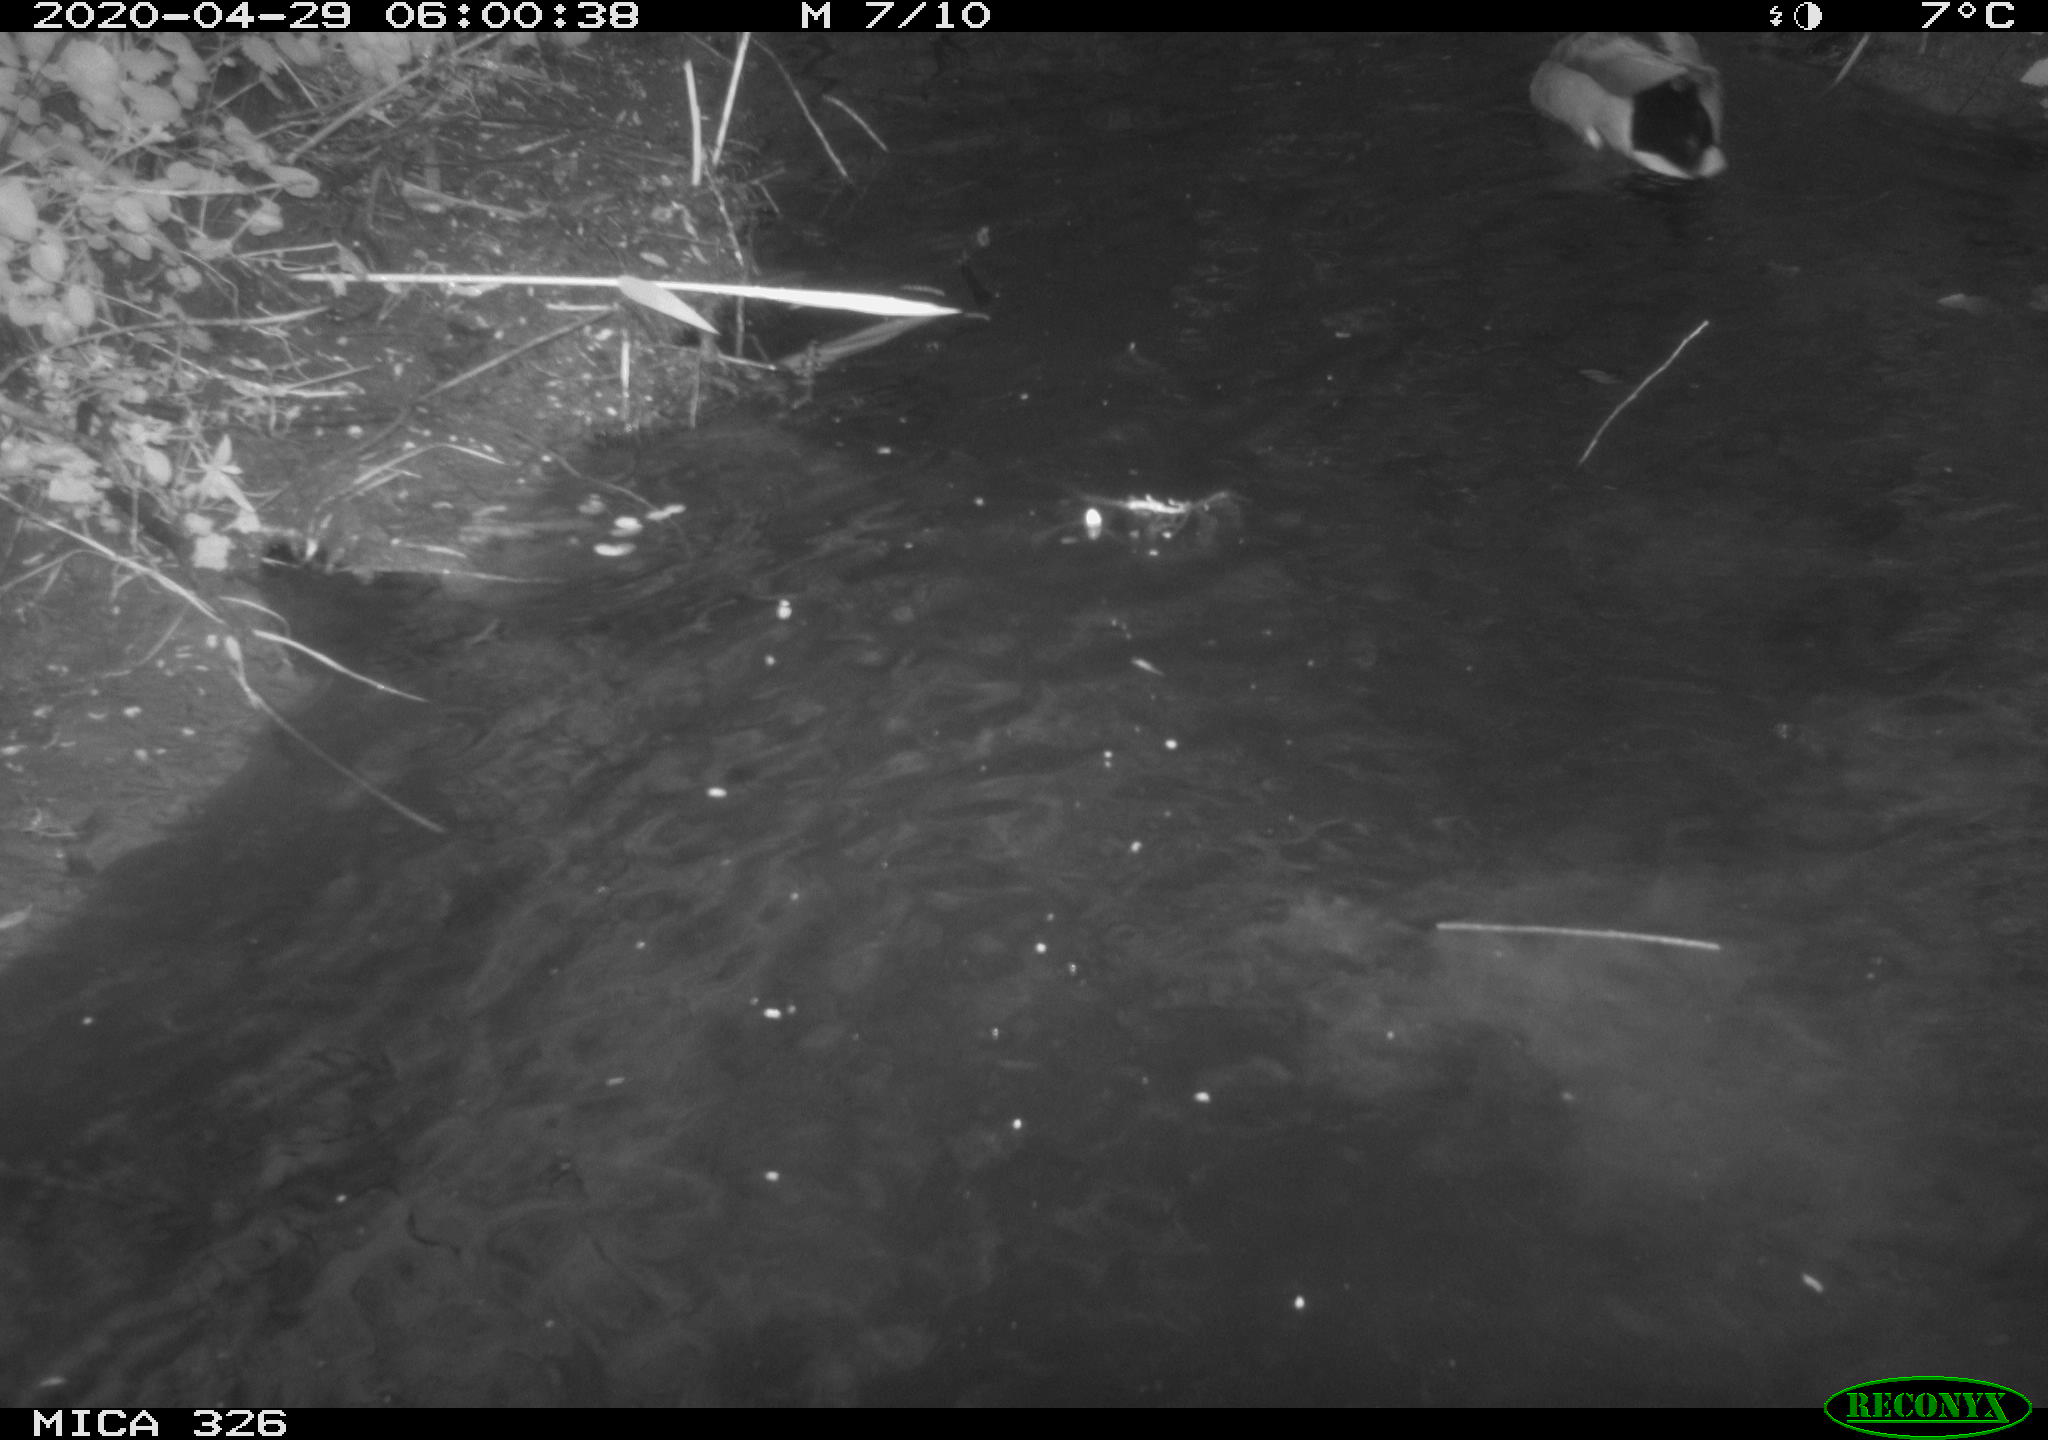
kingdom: Animalia
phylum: Chordata
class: Aves
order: Anseriformes
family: Anatidae
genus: Anas
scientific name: Anas platyrhynchos
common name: Mallard
